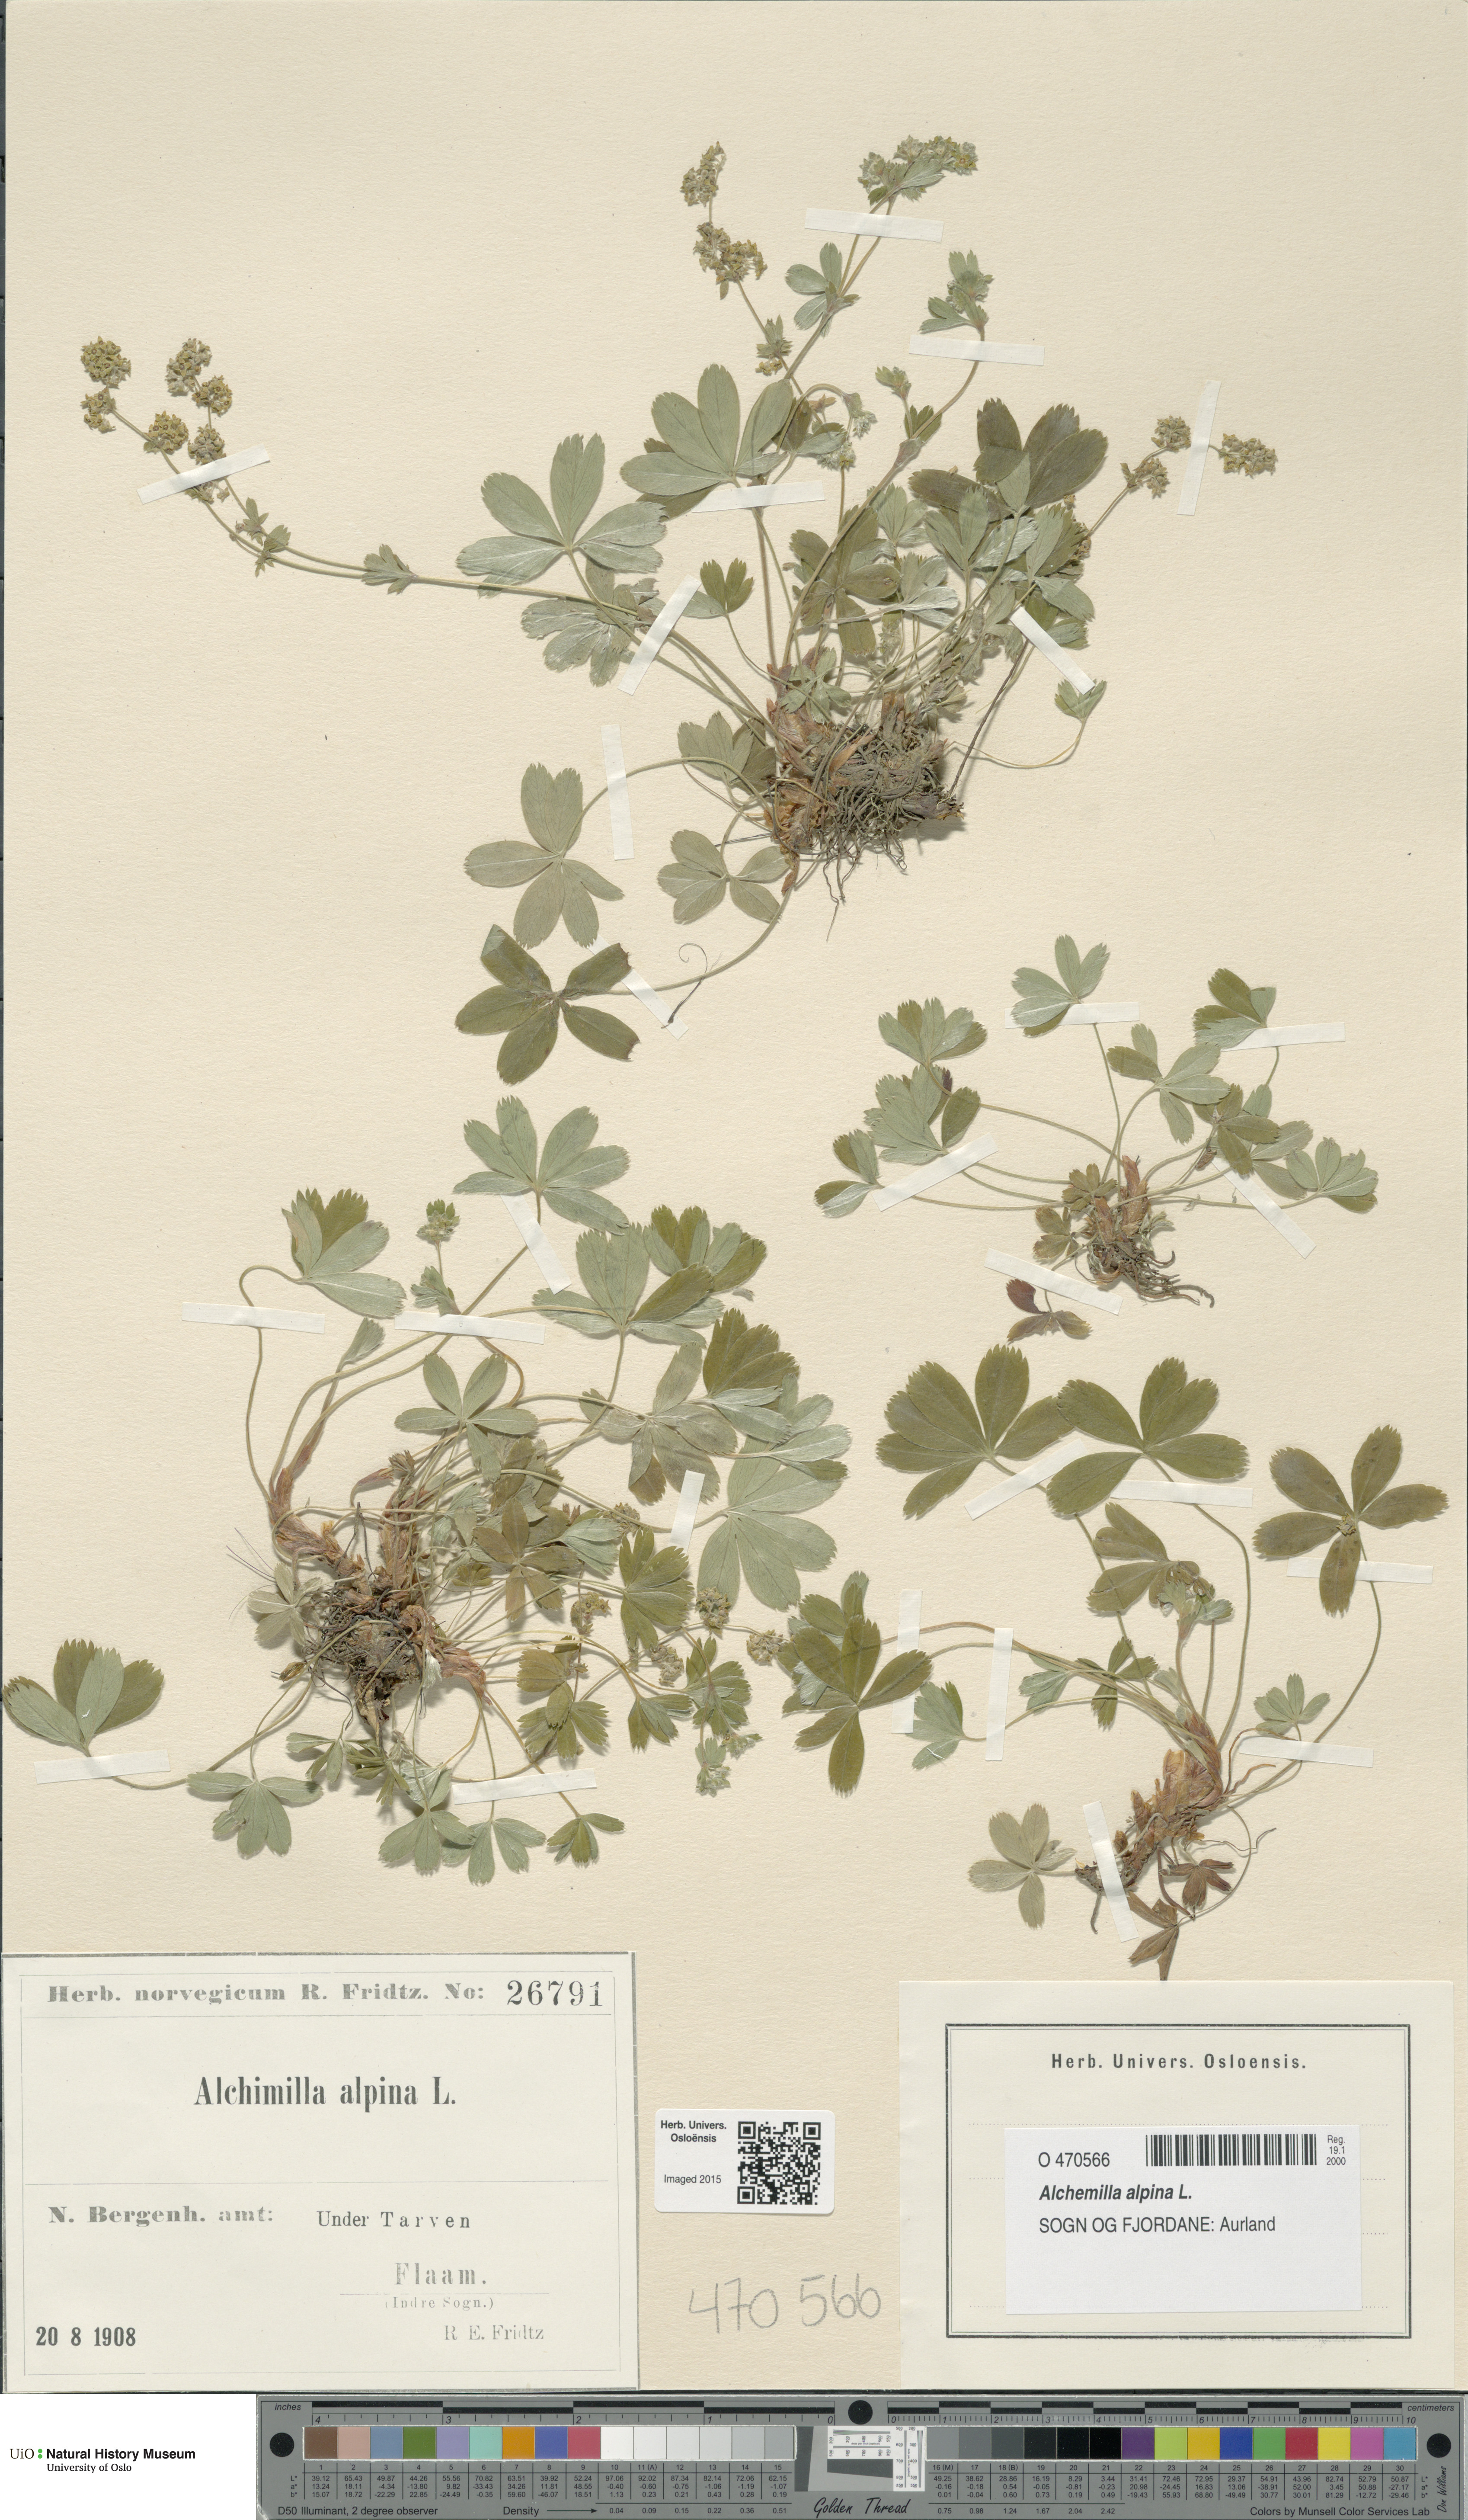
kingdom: Plantae
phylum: Tracheophyta
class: Magnoliopsida
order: Rosales
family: Rosaceae
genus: Alchemilla
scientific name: Alchemilla alpina
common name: Alpine lady's-mantle
